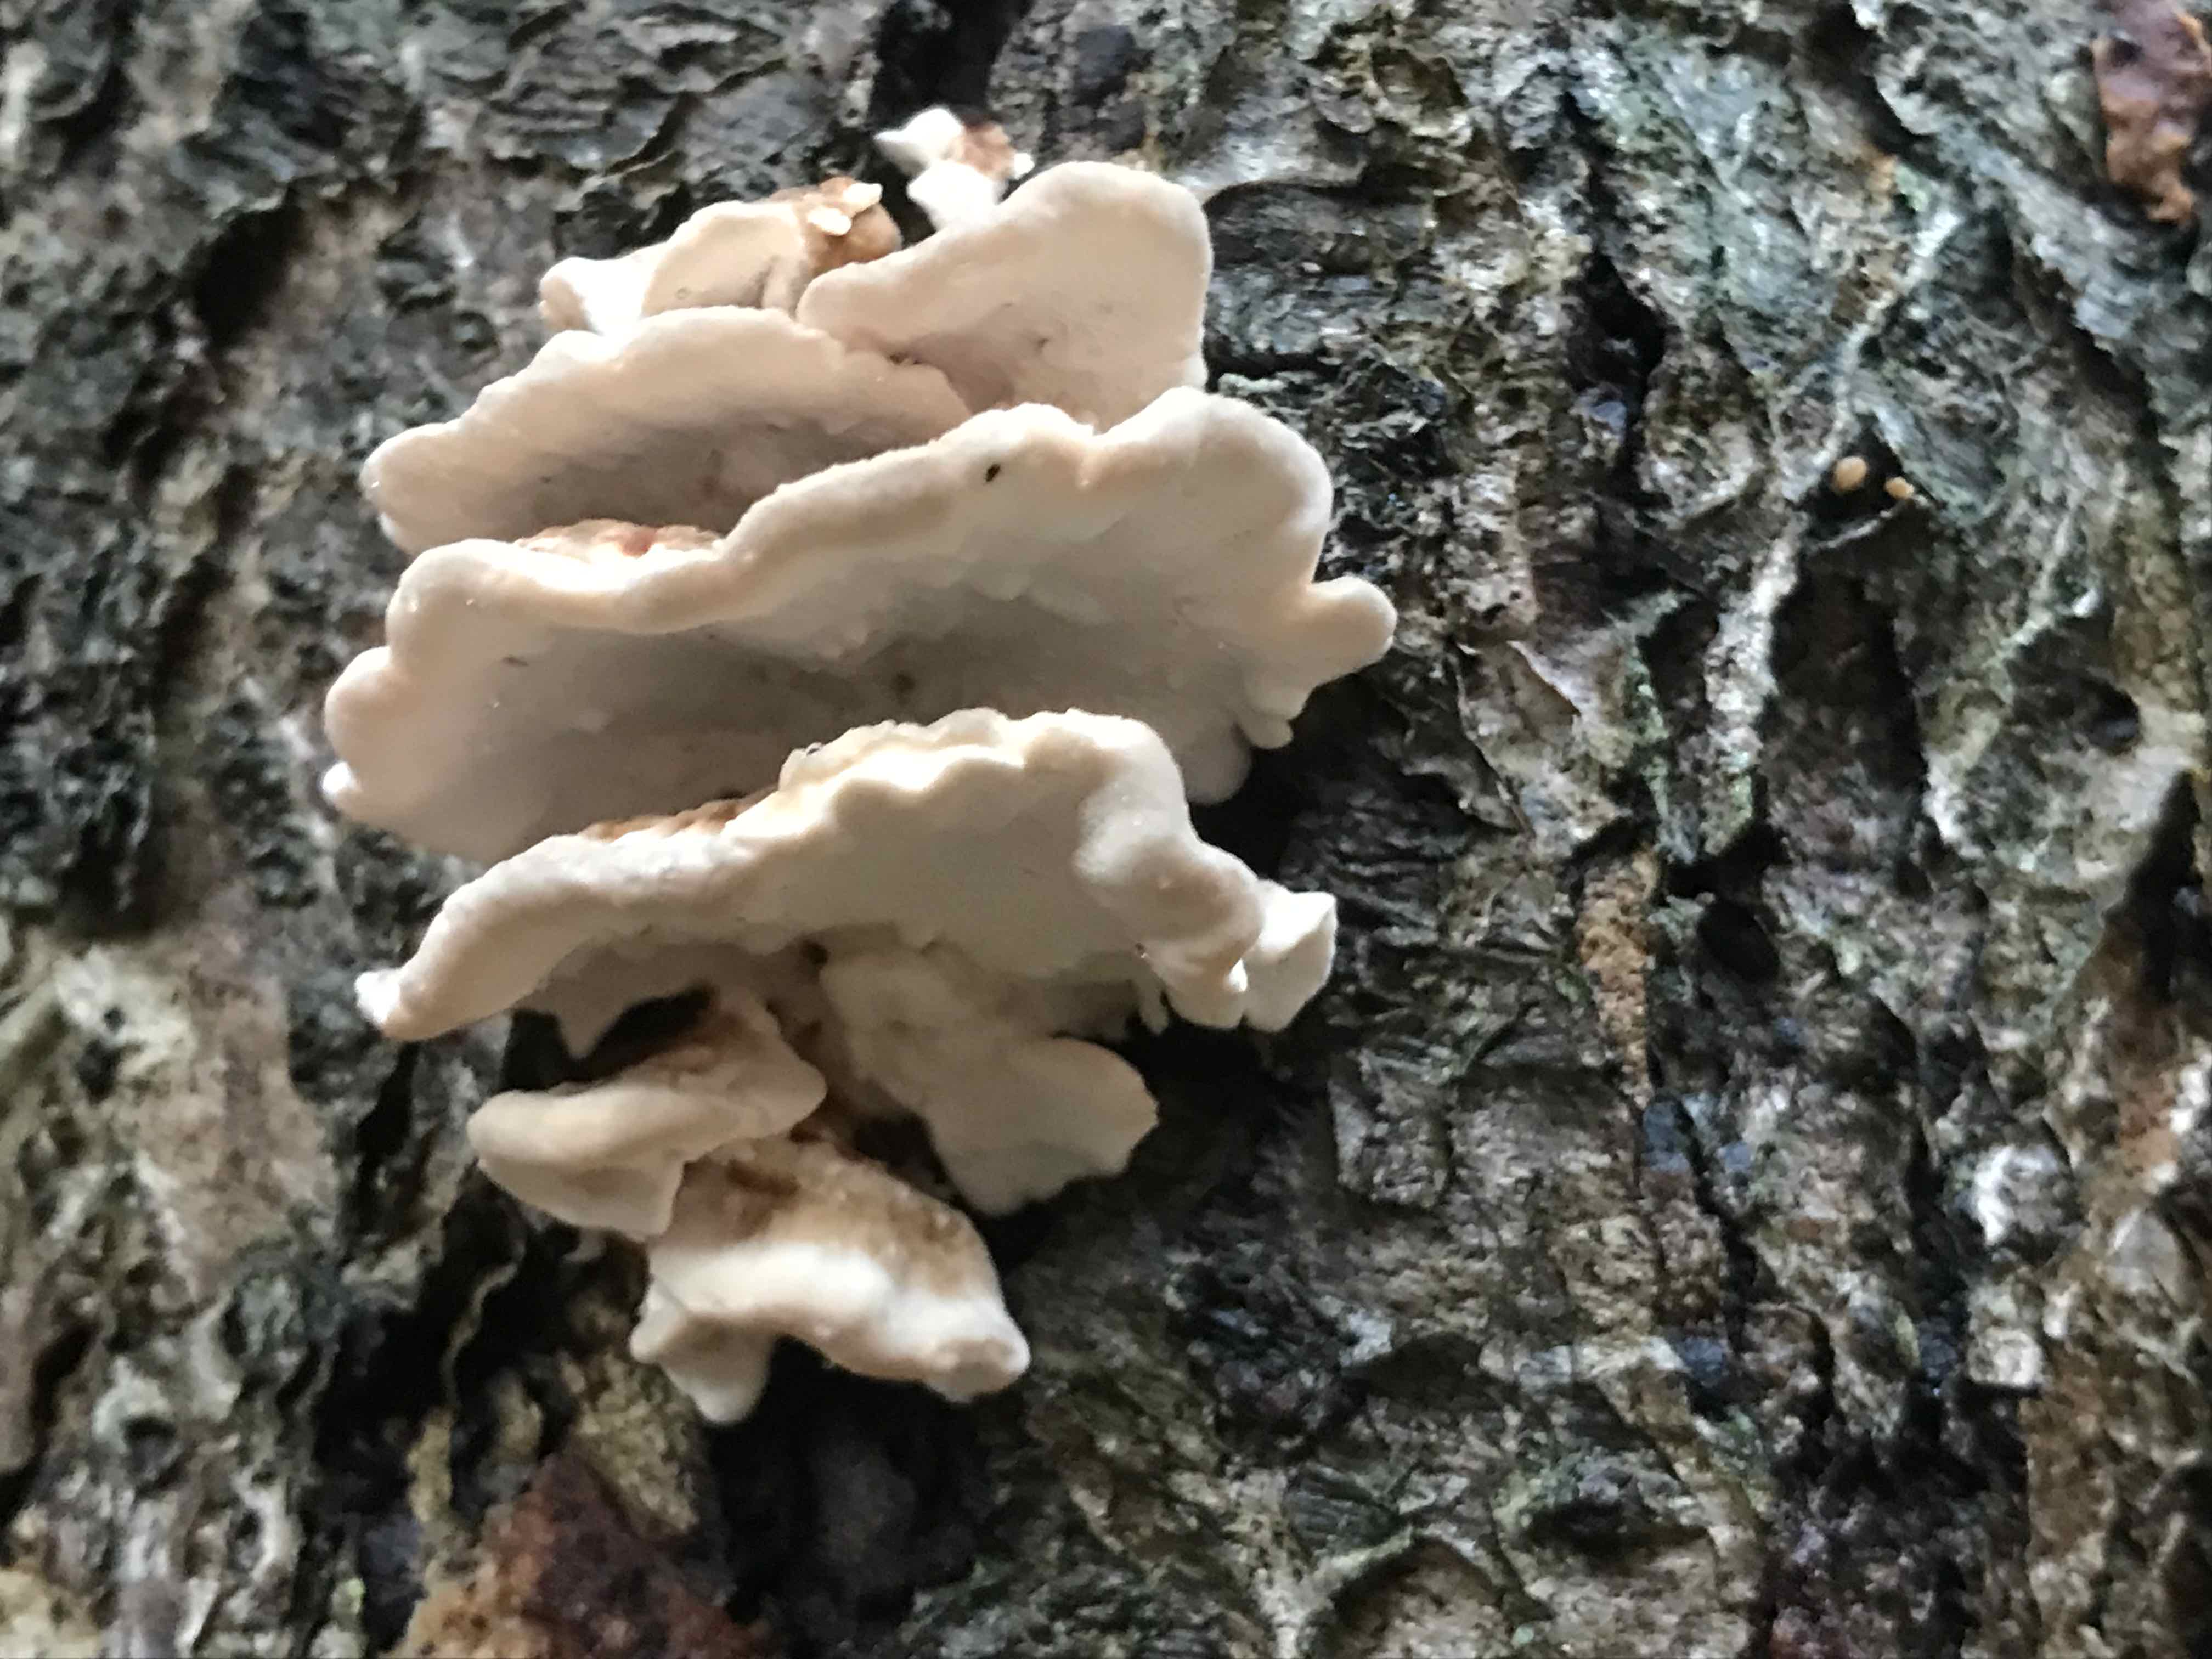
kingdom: Fungi
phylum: Basidiomycota
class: Agaricomycetes
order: Polyporales
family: Polyporaceae
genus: Trametes
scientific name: Trametes versicolor
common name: broget læderporesvamp
